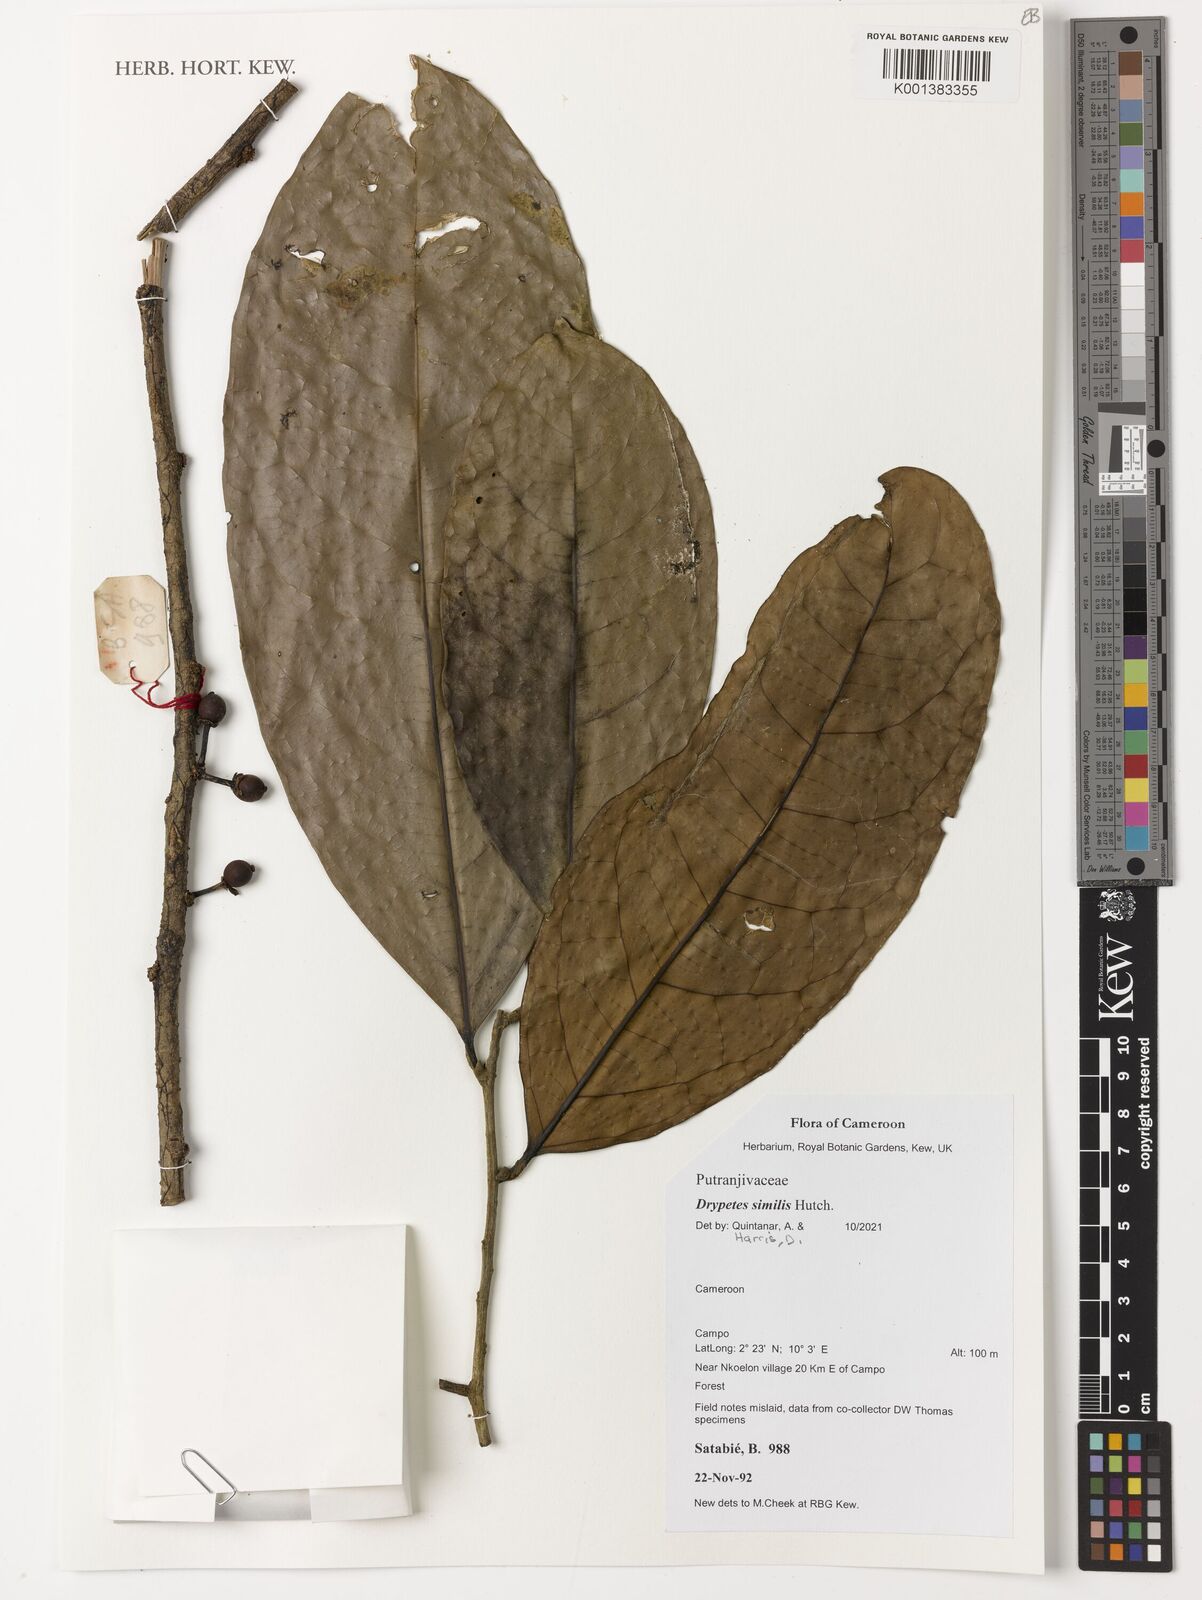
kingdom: Plantae
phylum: Tracheophyta
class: Magnoliopsida
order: Malpighiales
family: Putranjivaceae
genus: Drypetes
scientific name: Drypetes similis
